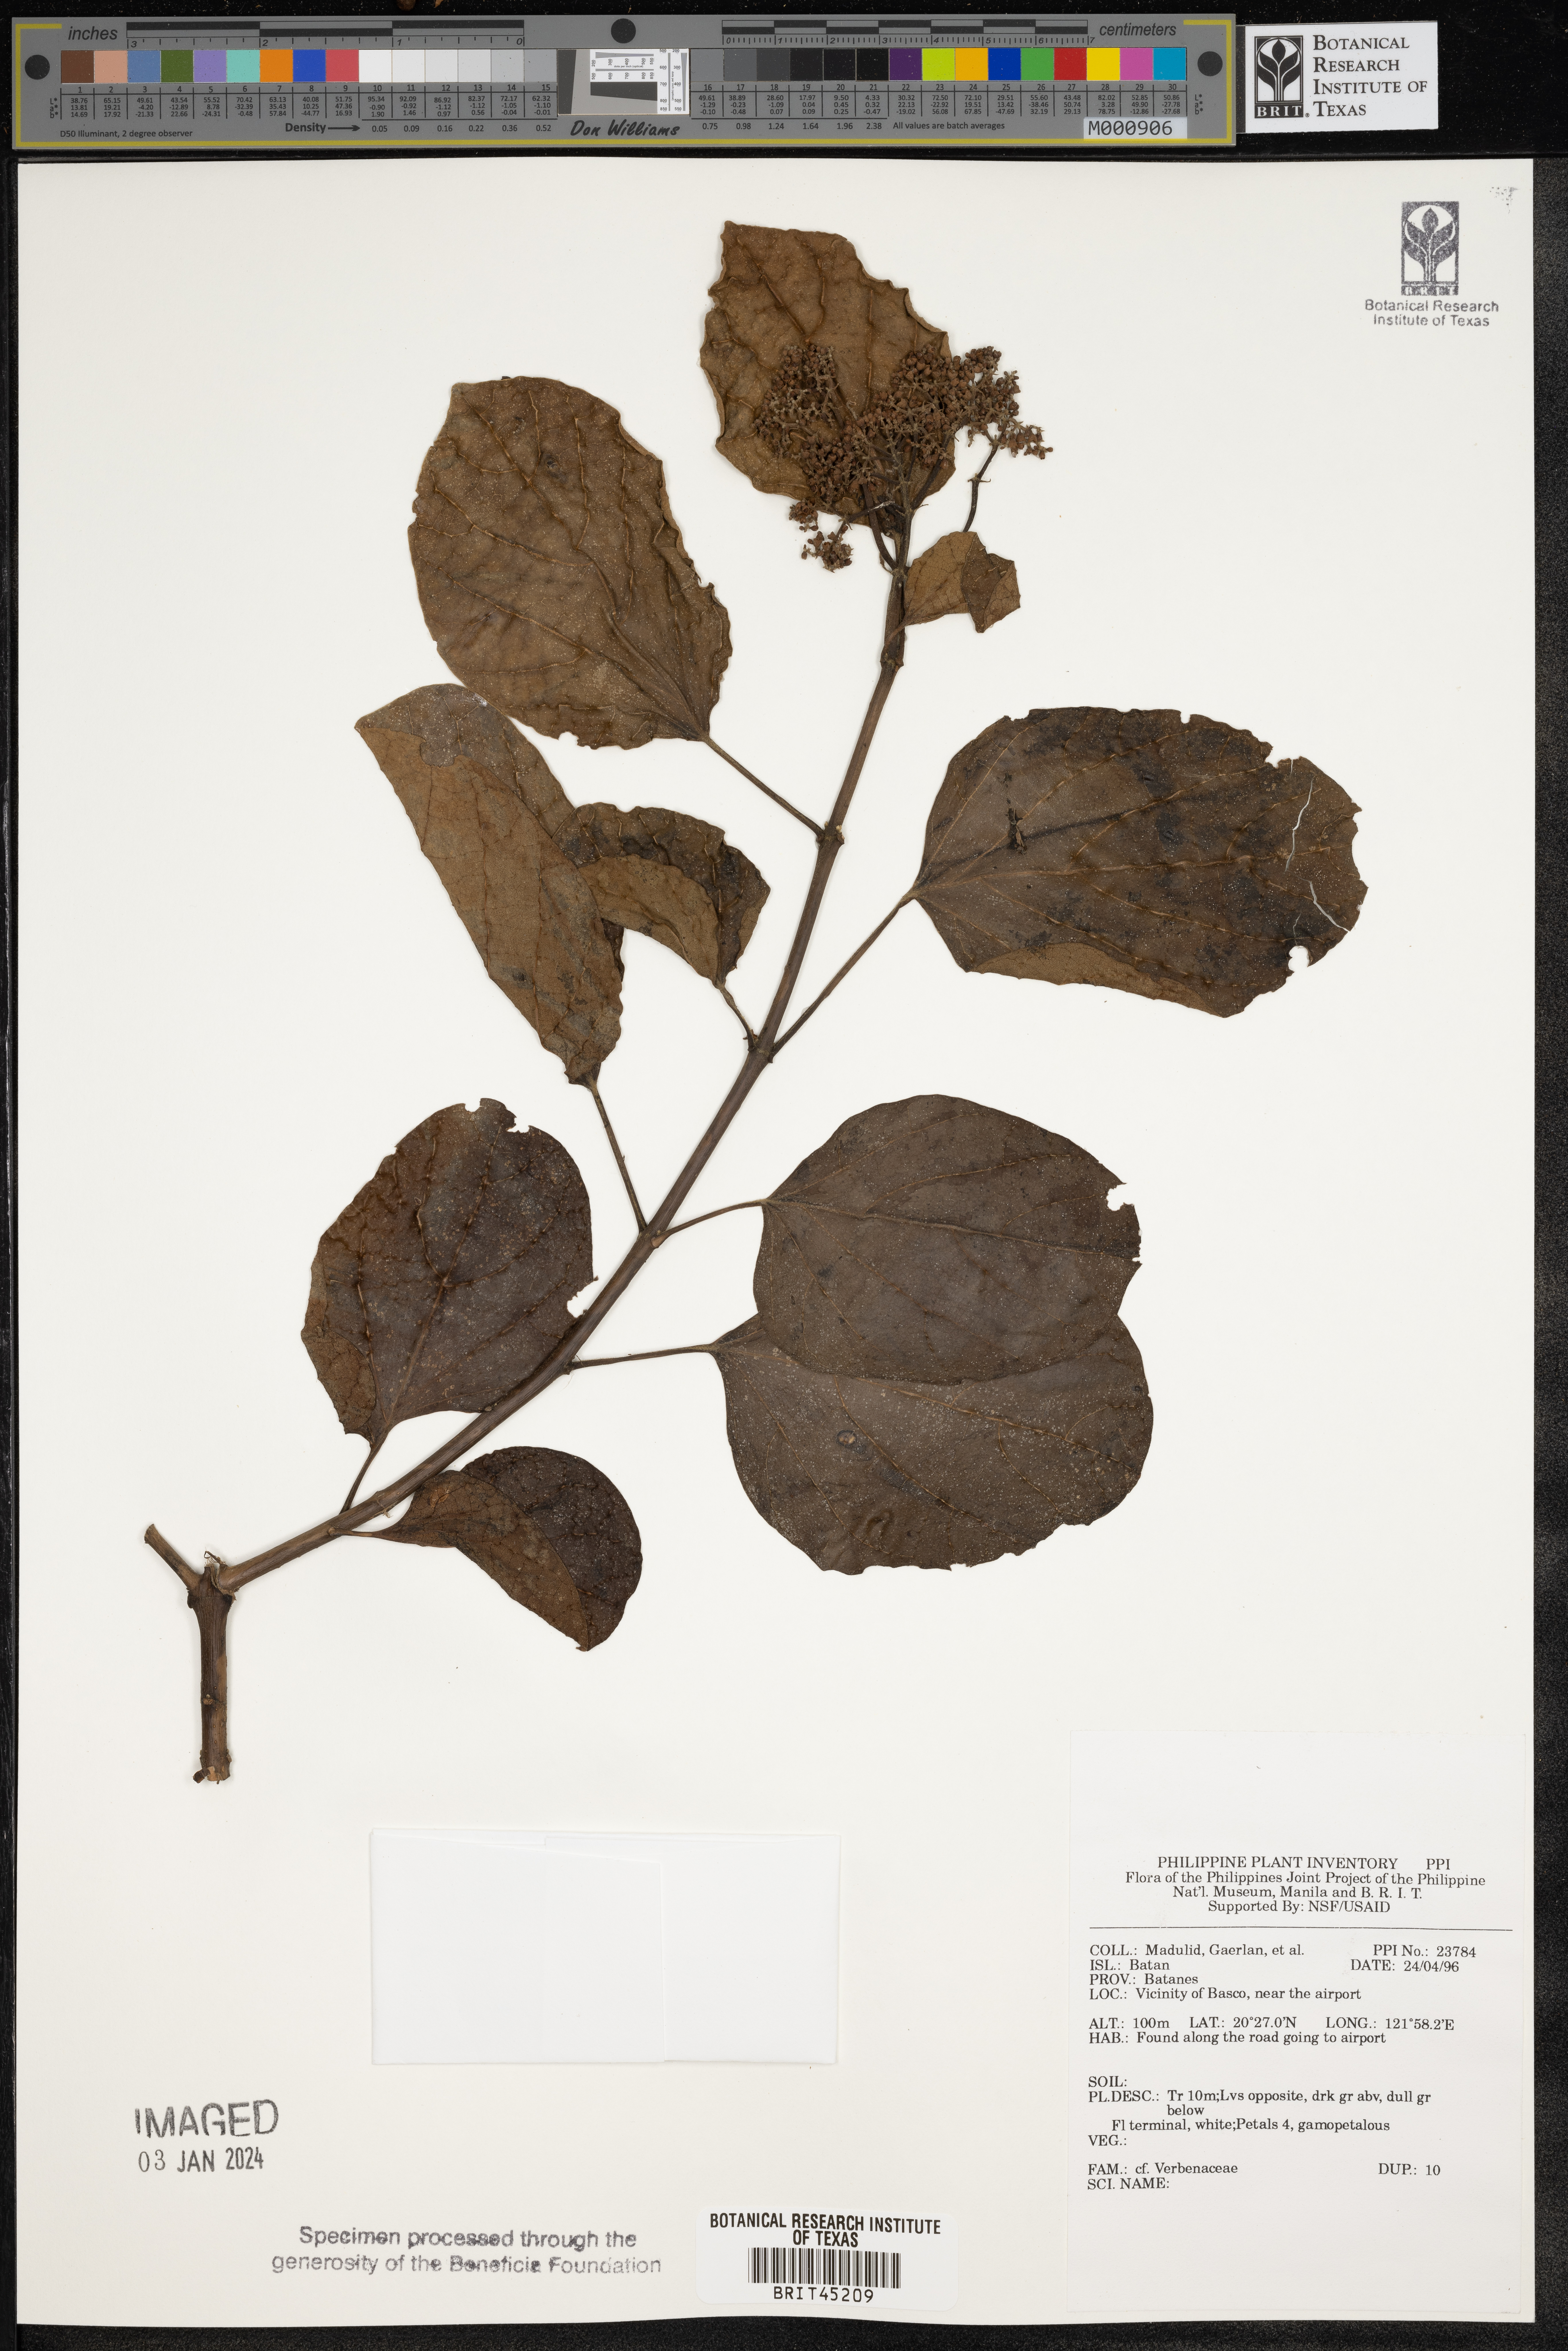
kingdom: Plantae
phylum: Tracheophyta
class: Magnoliopsida
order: Lamiales
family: Verbenaceae
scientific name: Verbenaceae
